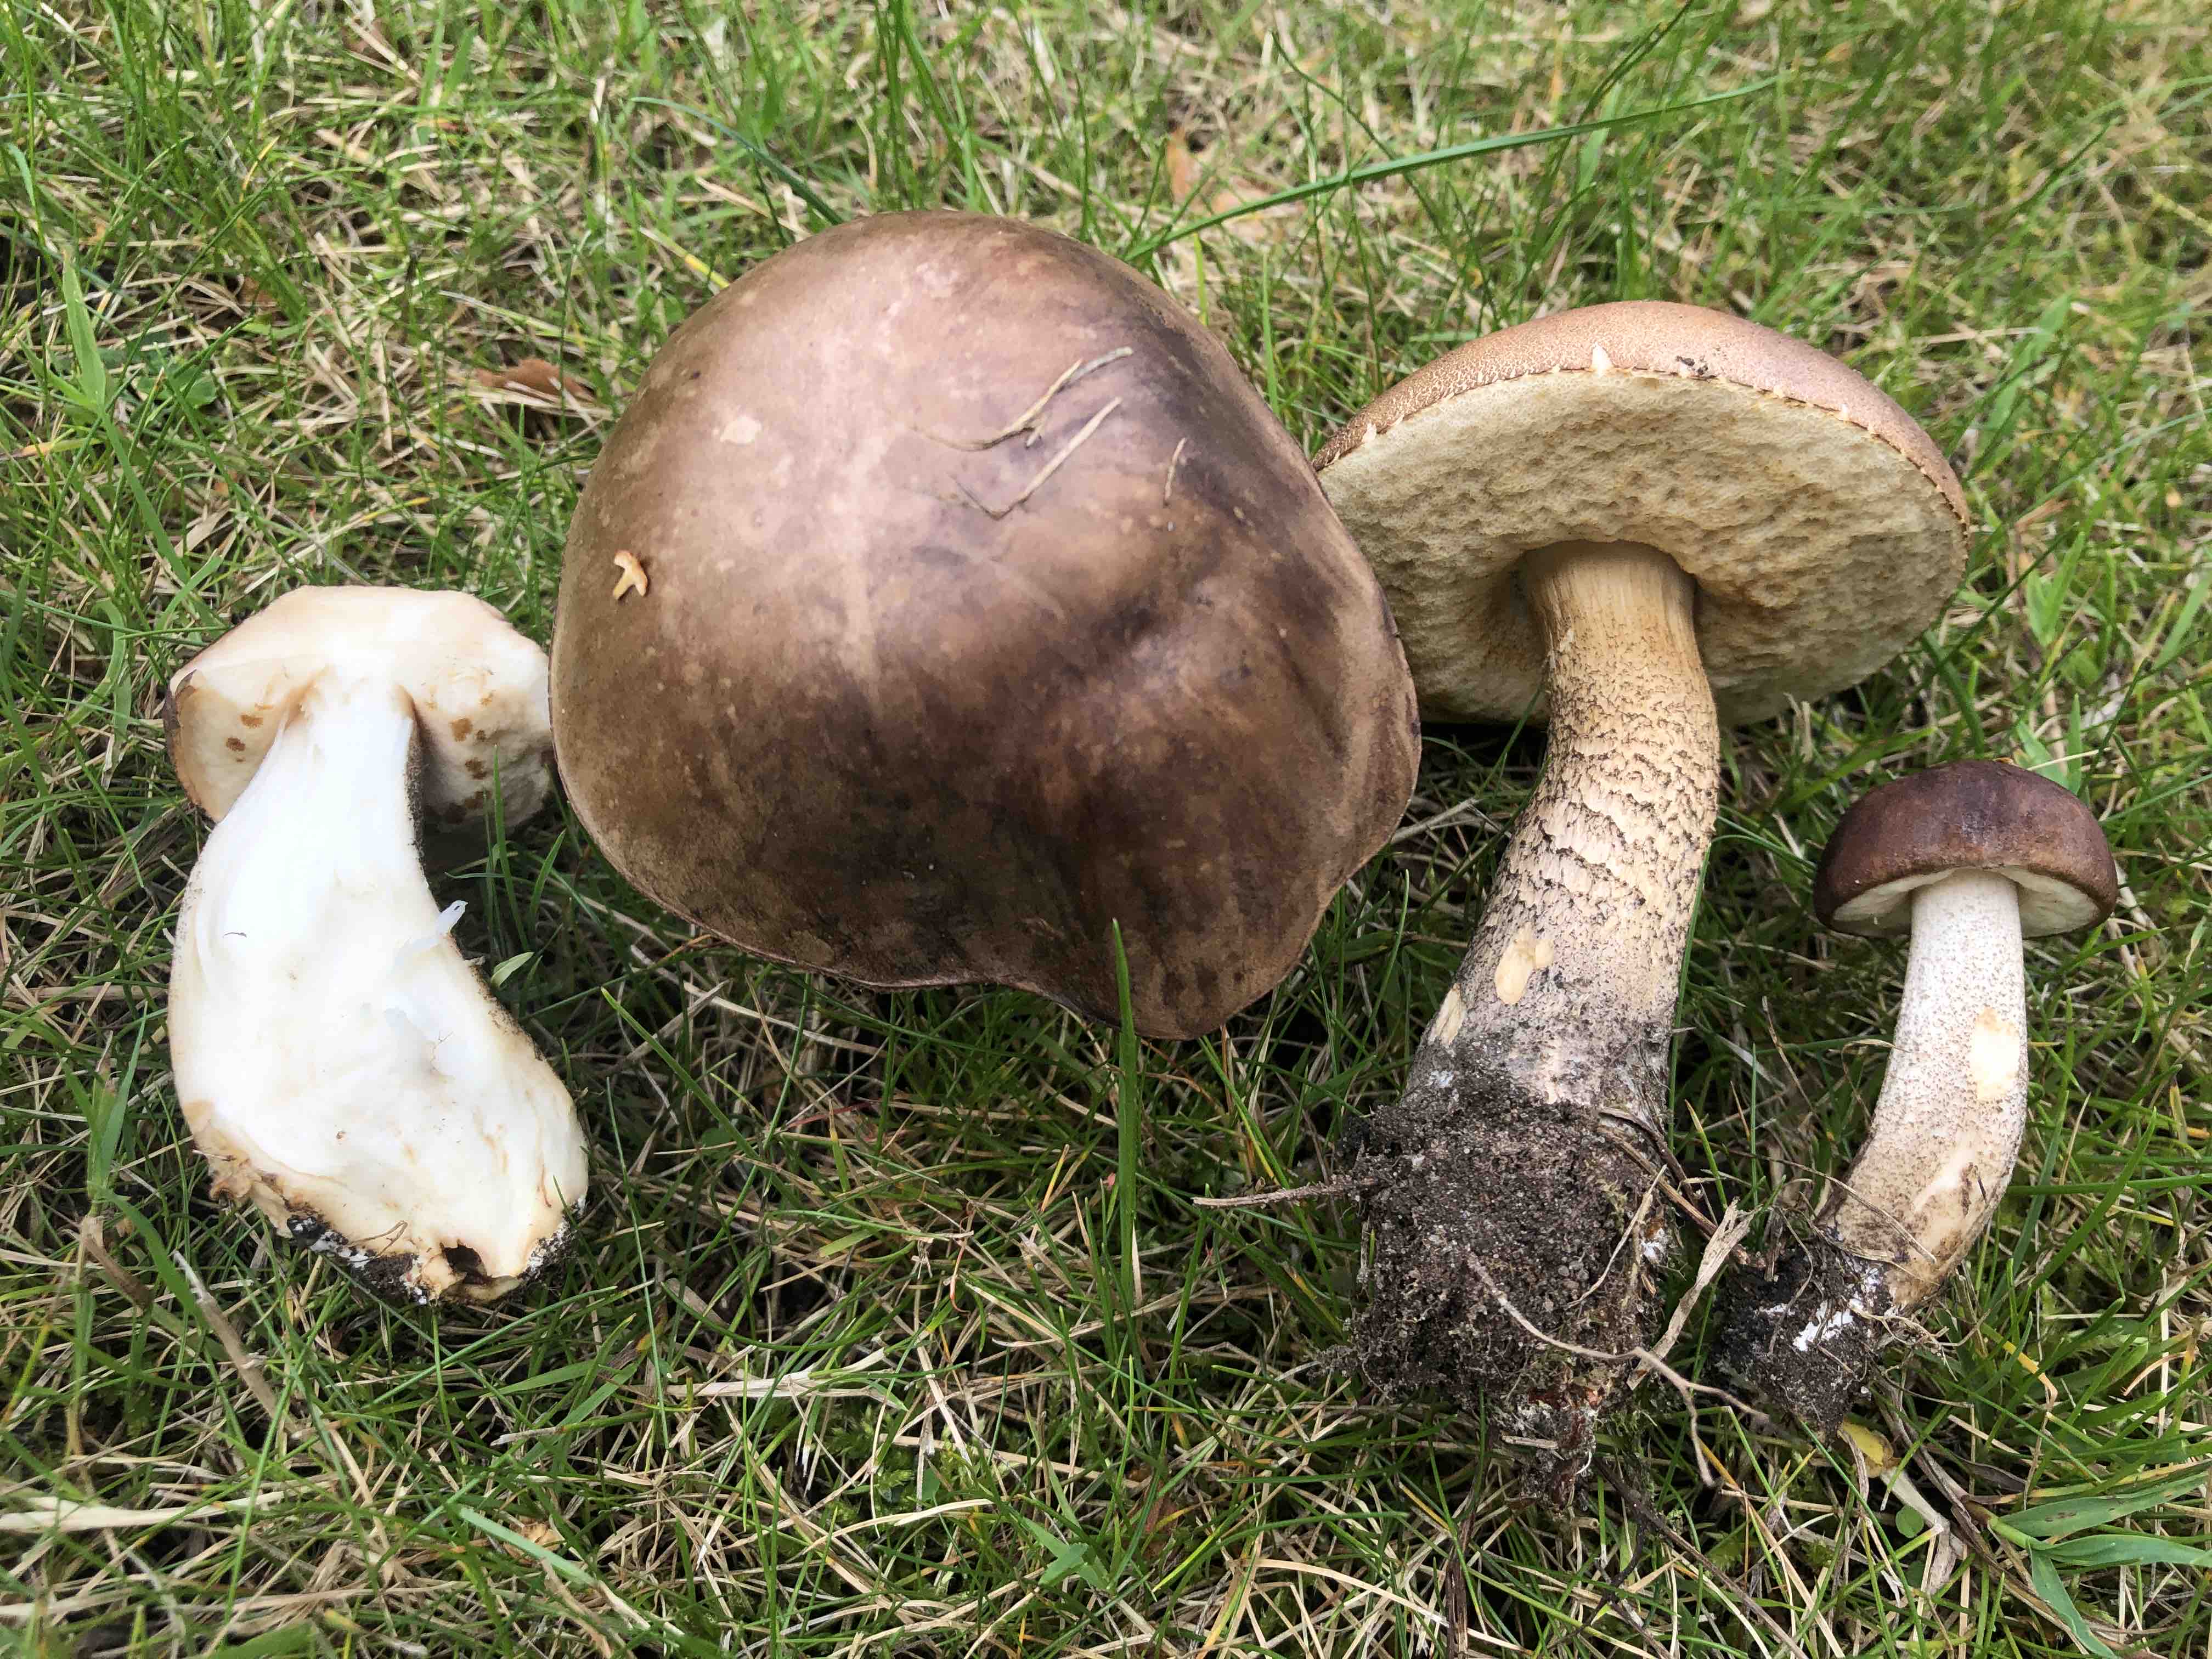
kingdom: Fungi
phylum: Basidiomycota
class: Agaricomycetes
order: Boletales
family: Boletaceae
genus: Leccinum
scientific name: Leccinum scabrum
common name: brun skælrørhat
